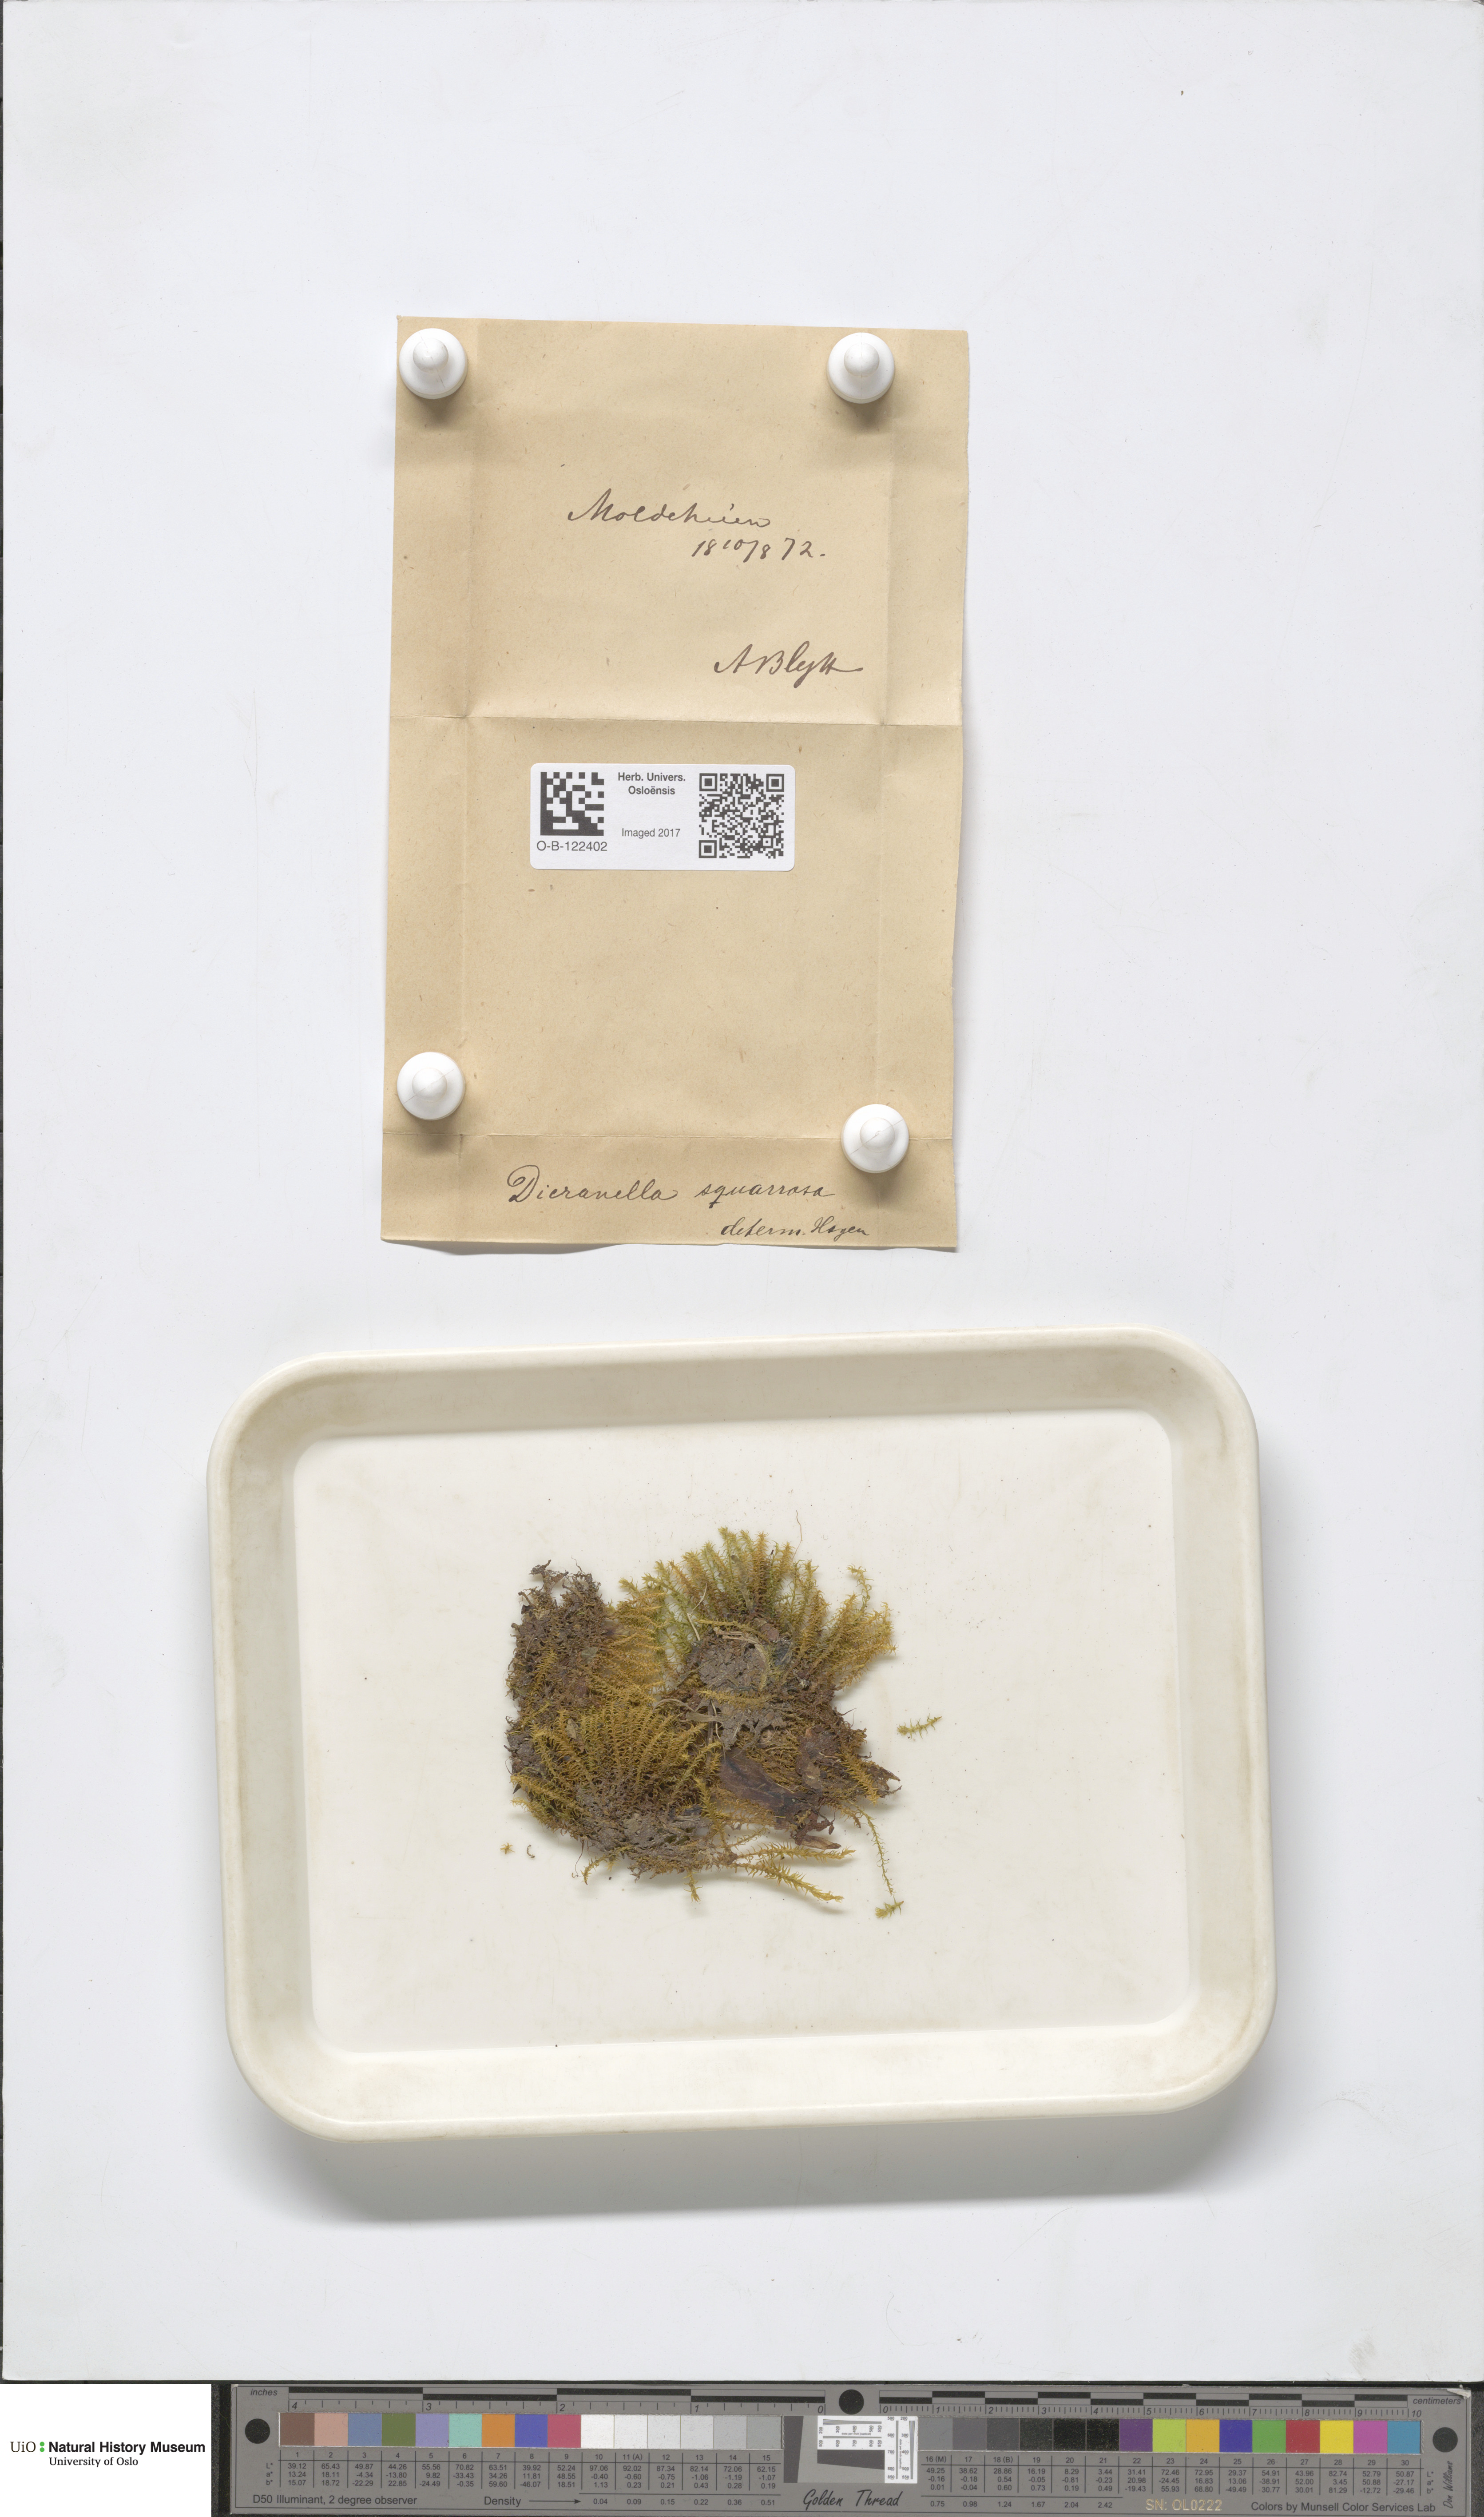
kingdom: Plantae
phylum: Bryophyta
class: Bryopsida
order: Dicranales
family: Aongstroemiaceae
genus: Diobelonella
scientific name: Diobelonella palustris
